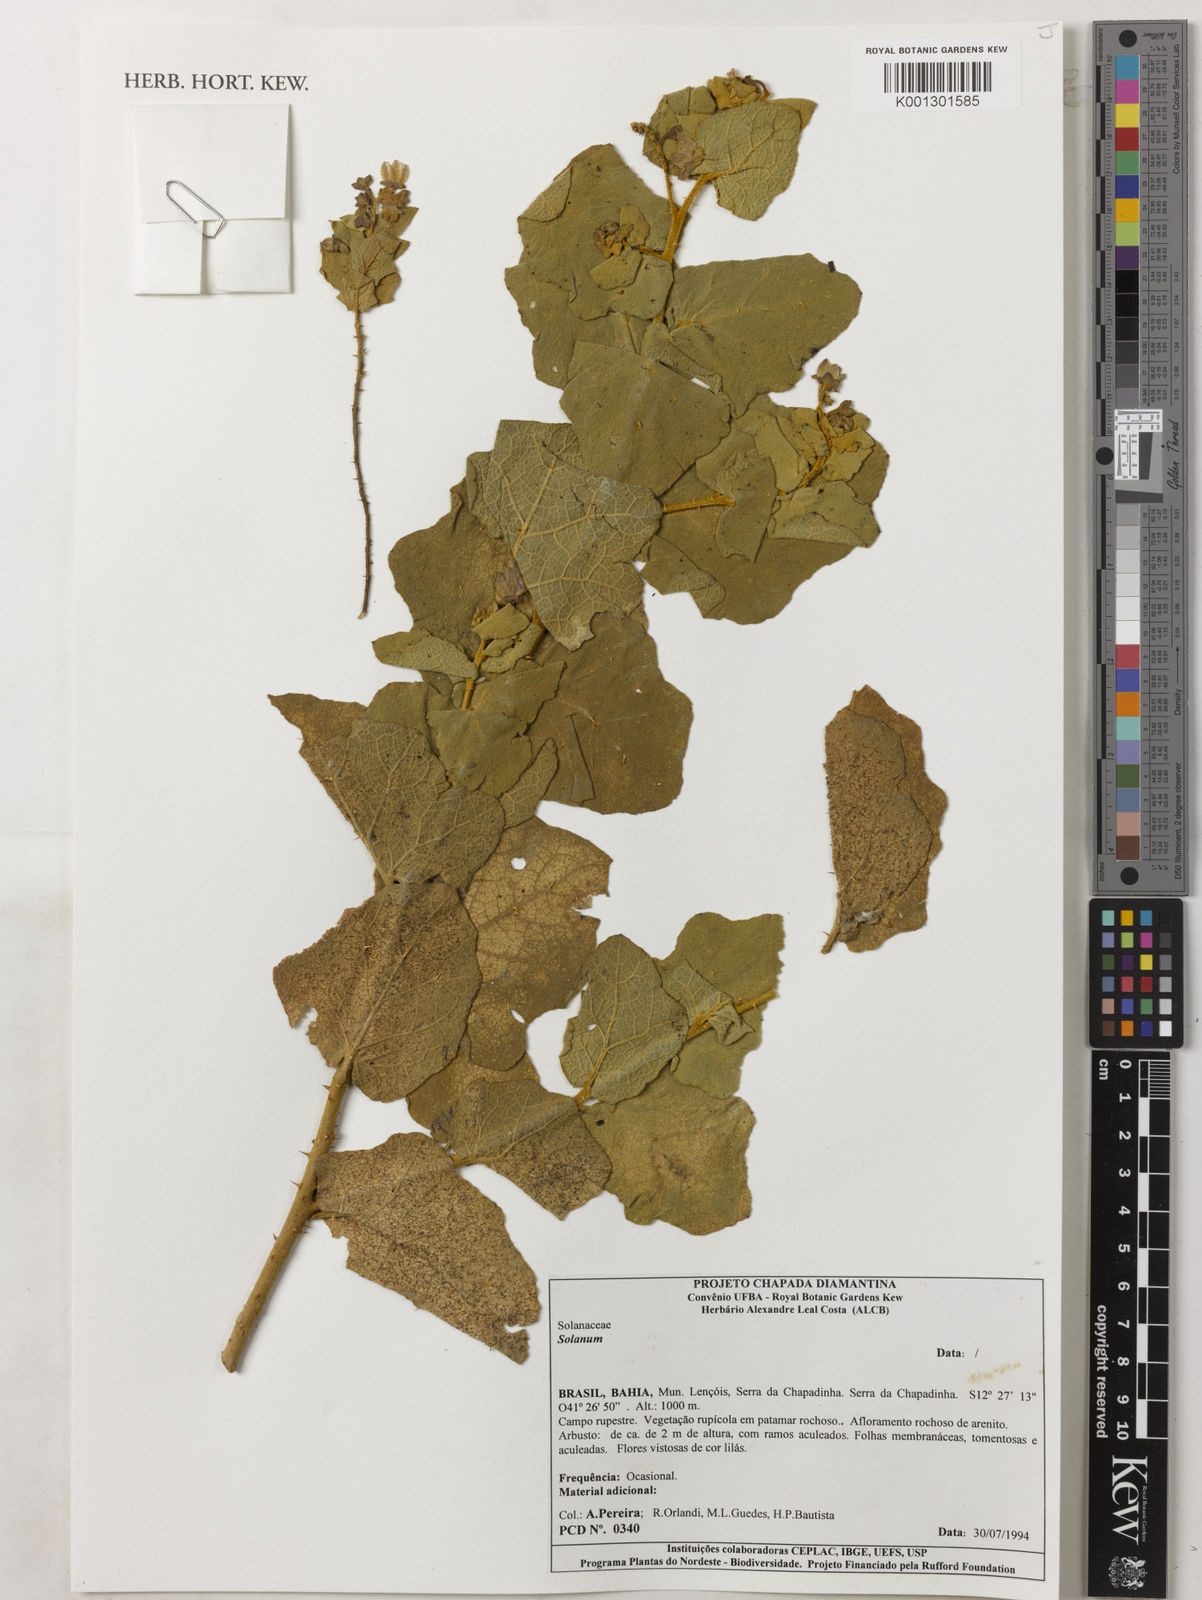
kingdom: Plantae
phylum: Tracheophyta
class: Magnoliopsida
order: Solanales
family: Solanaceae
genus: Solanum
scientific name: Solanum thomasiifolium
